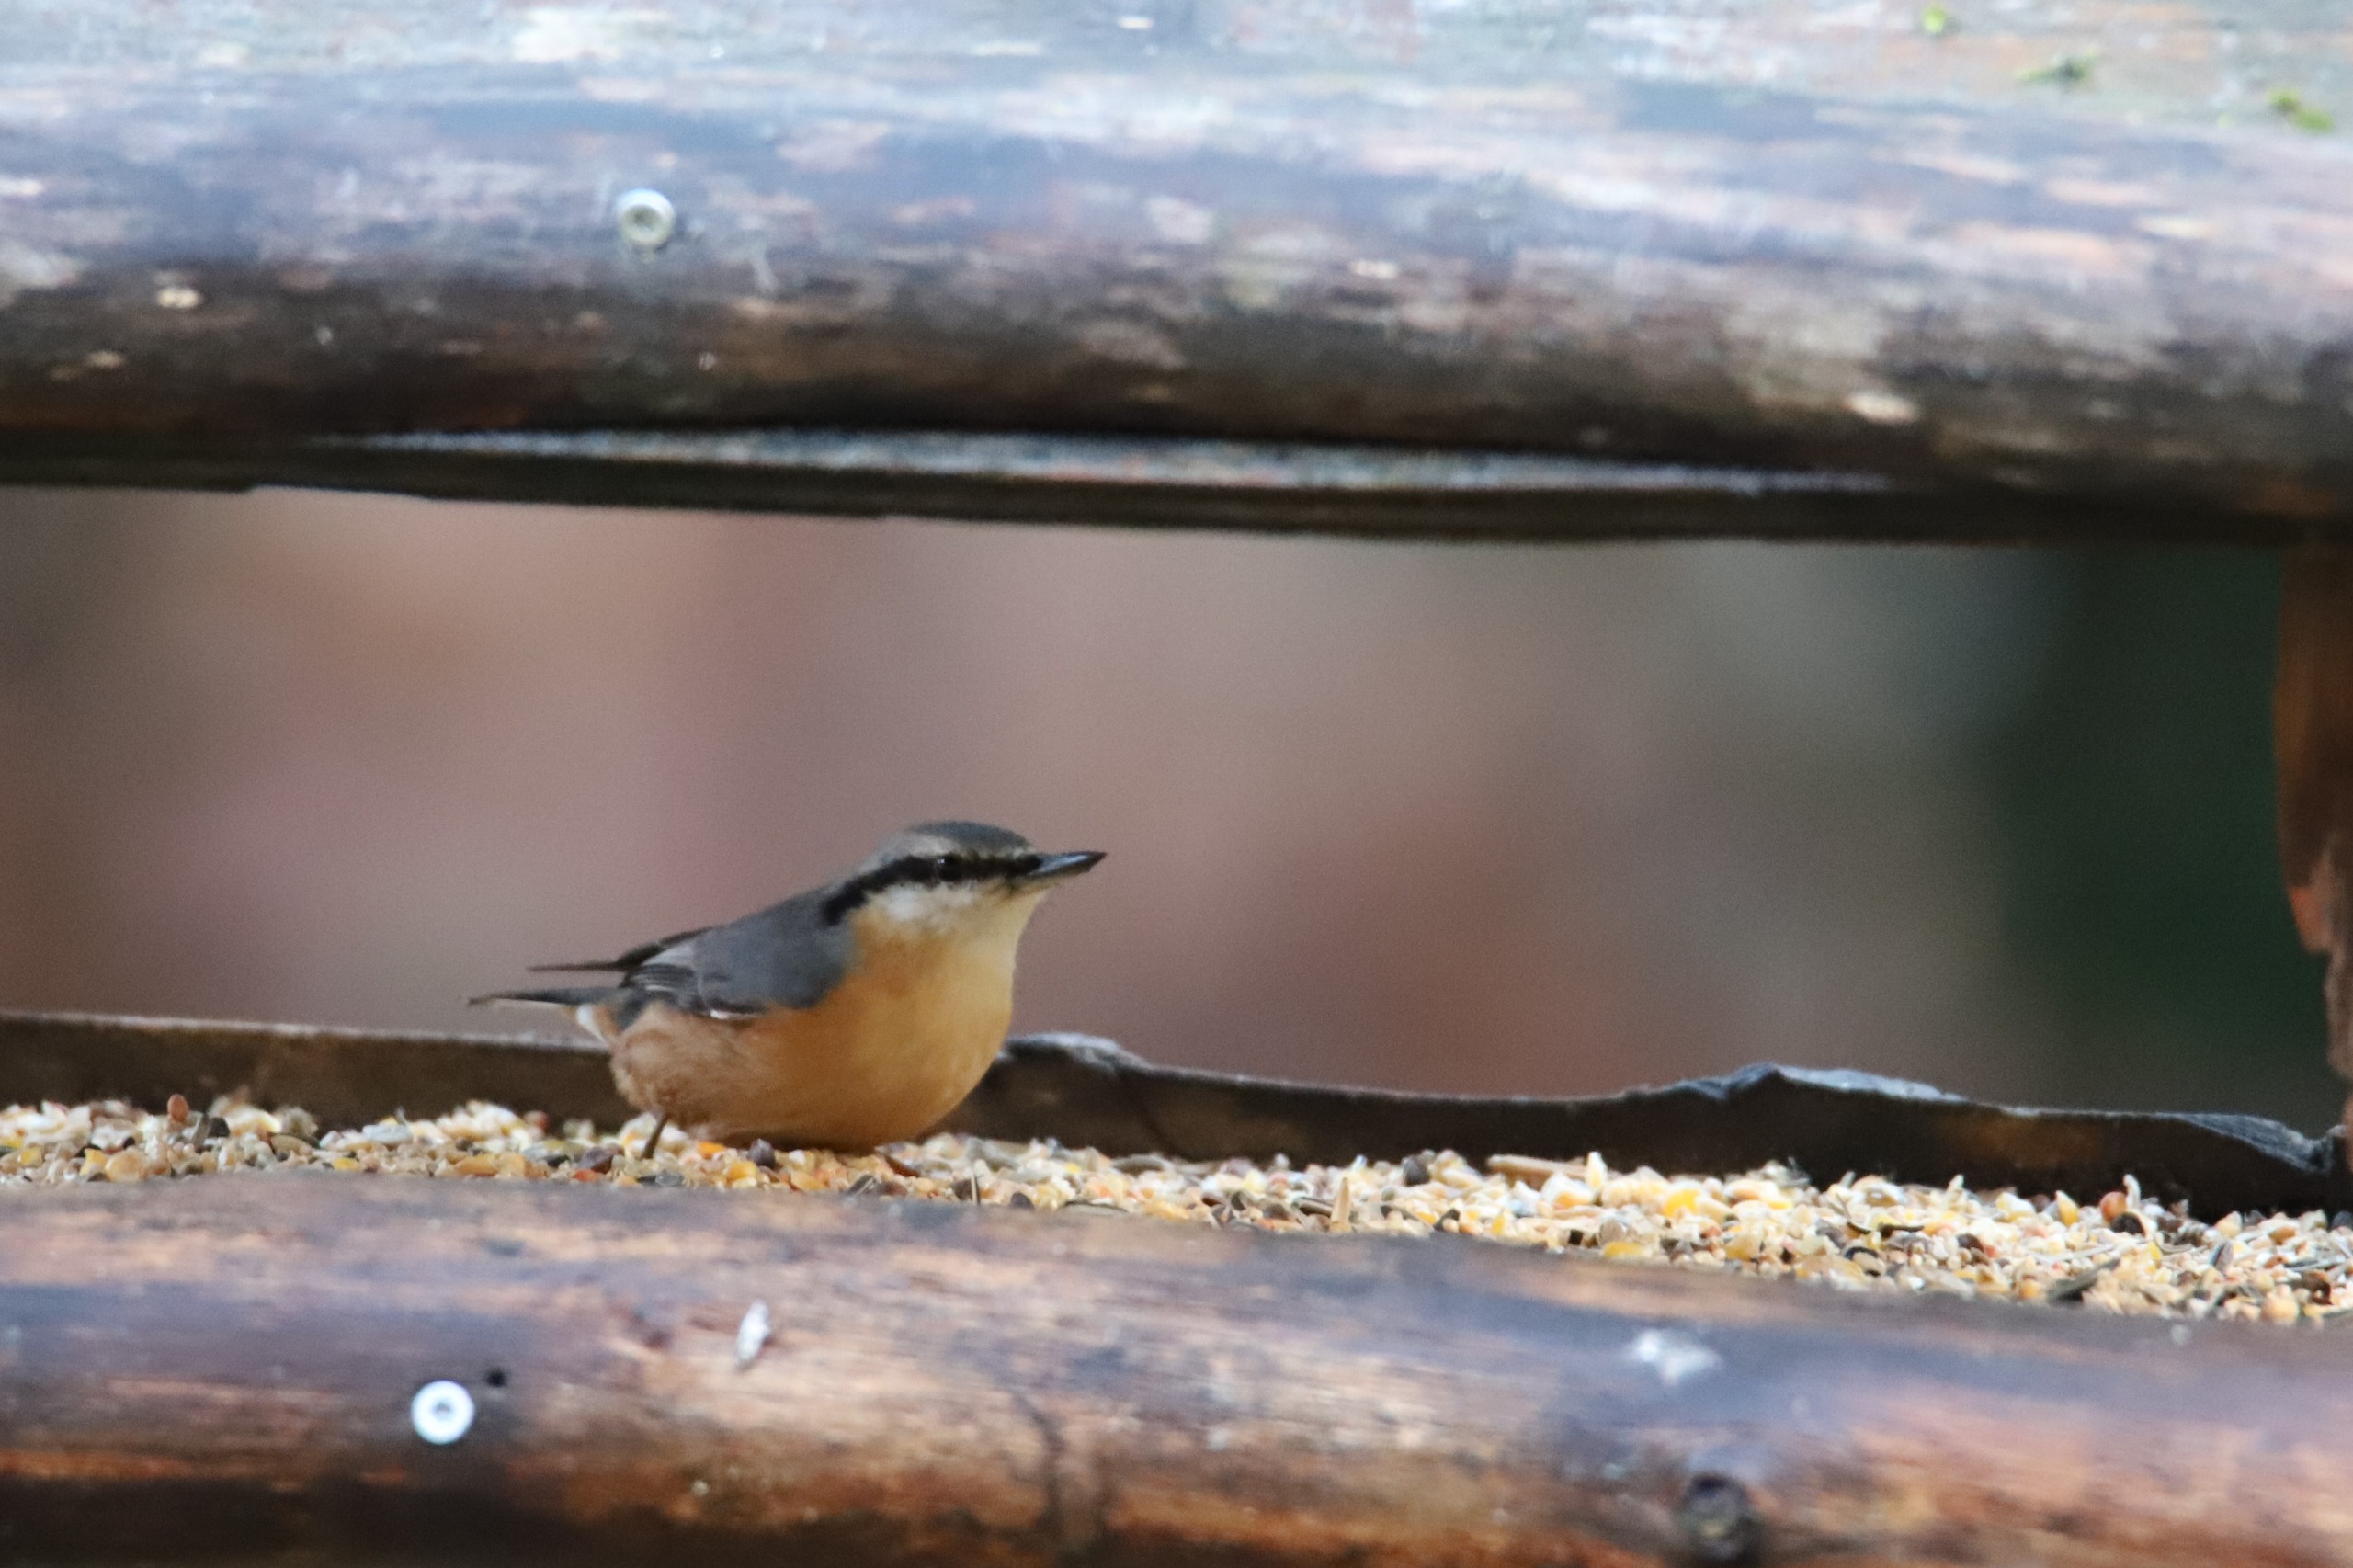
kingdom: Animalia
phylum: Chordata
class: Aves
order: Passeriformes
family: Sittidae
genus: Sitta
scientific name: Sitta europaea
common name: Spætmejse
